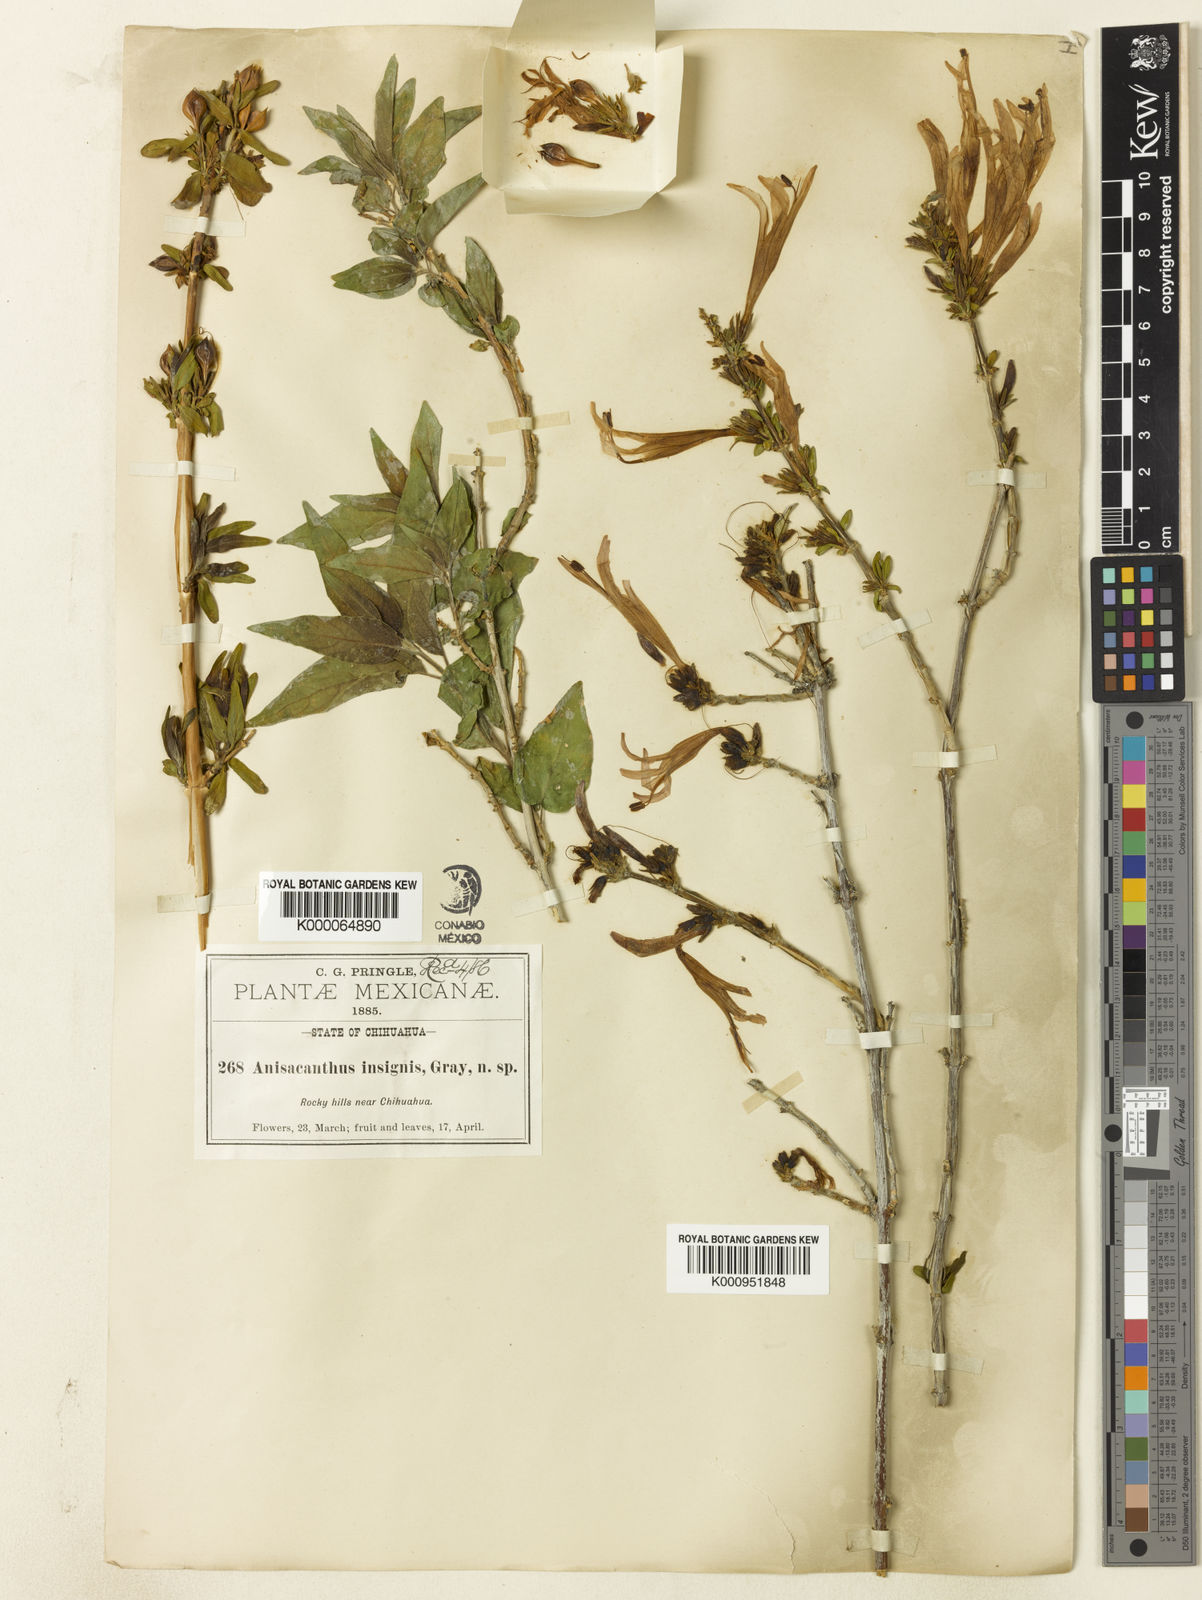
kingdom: Plantae
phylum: Tracheophyta
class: Magnoliopsida
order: Lamiales
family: Acanthaceae
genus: Anisacanthus
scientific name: Anisacanthus
